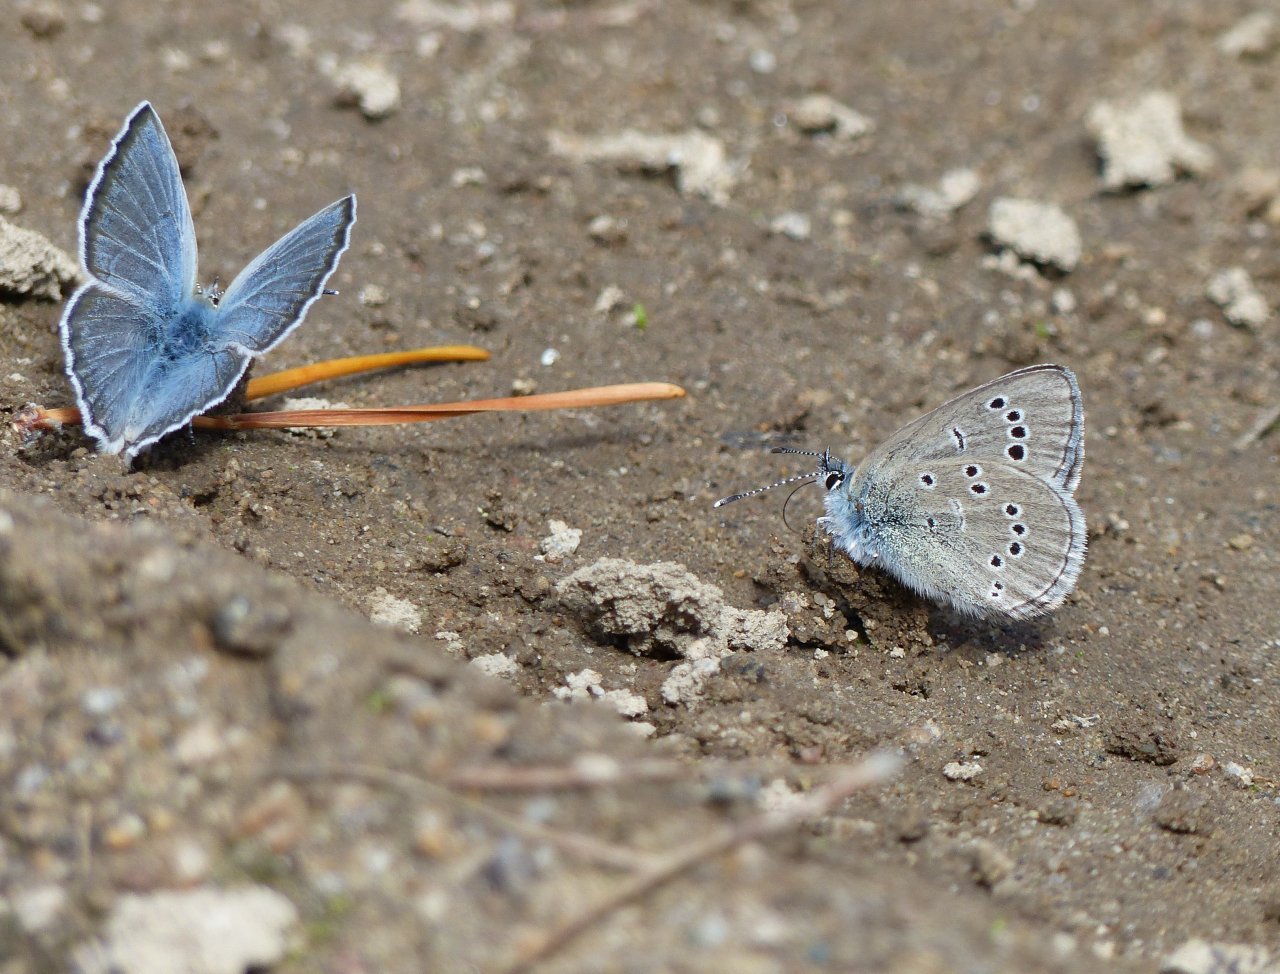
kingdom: Animalia
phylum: Arthropoda
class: Insecta
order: Lepidoptera
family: Lycaenidae
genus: Glaucopsyche
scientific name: Glaucopsyche lygdamus
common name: Silvery Blue
